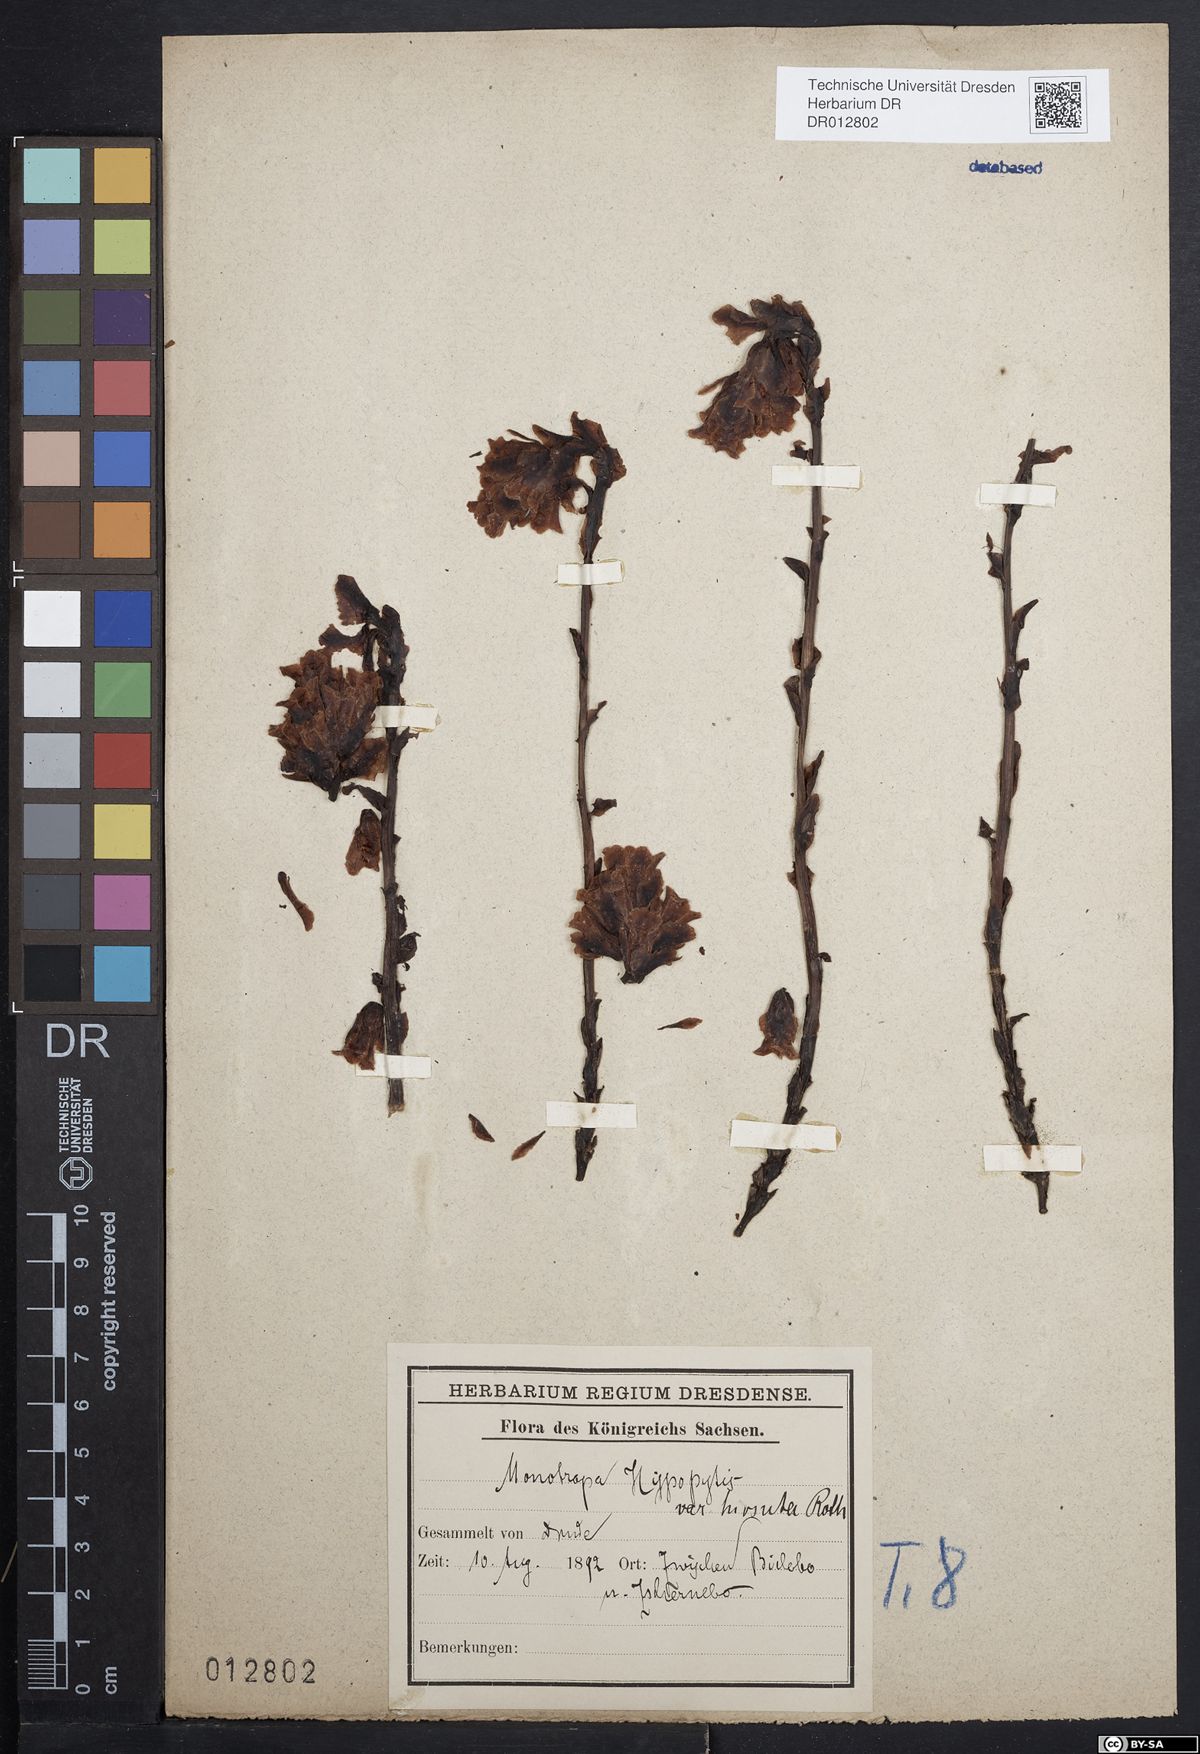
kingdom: Plantae
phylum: Tracheophyta
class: Magnoliopsida
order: Ericales
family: Ericaceae
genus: Hypopitys
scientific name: Hypopitys monotropa
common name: Yellow bird's-nest
